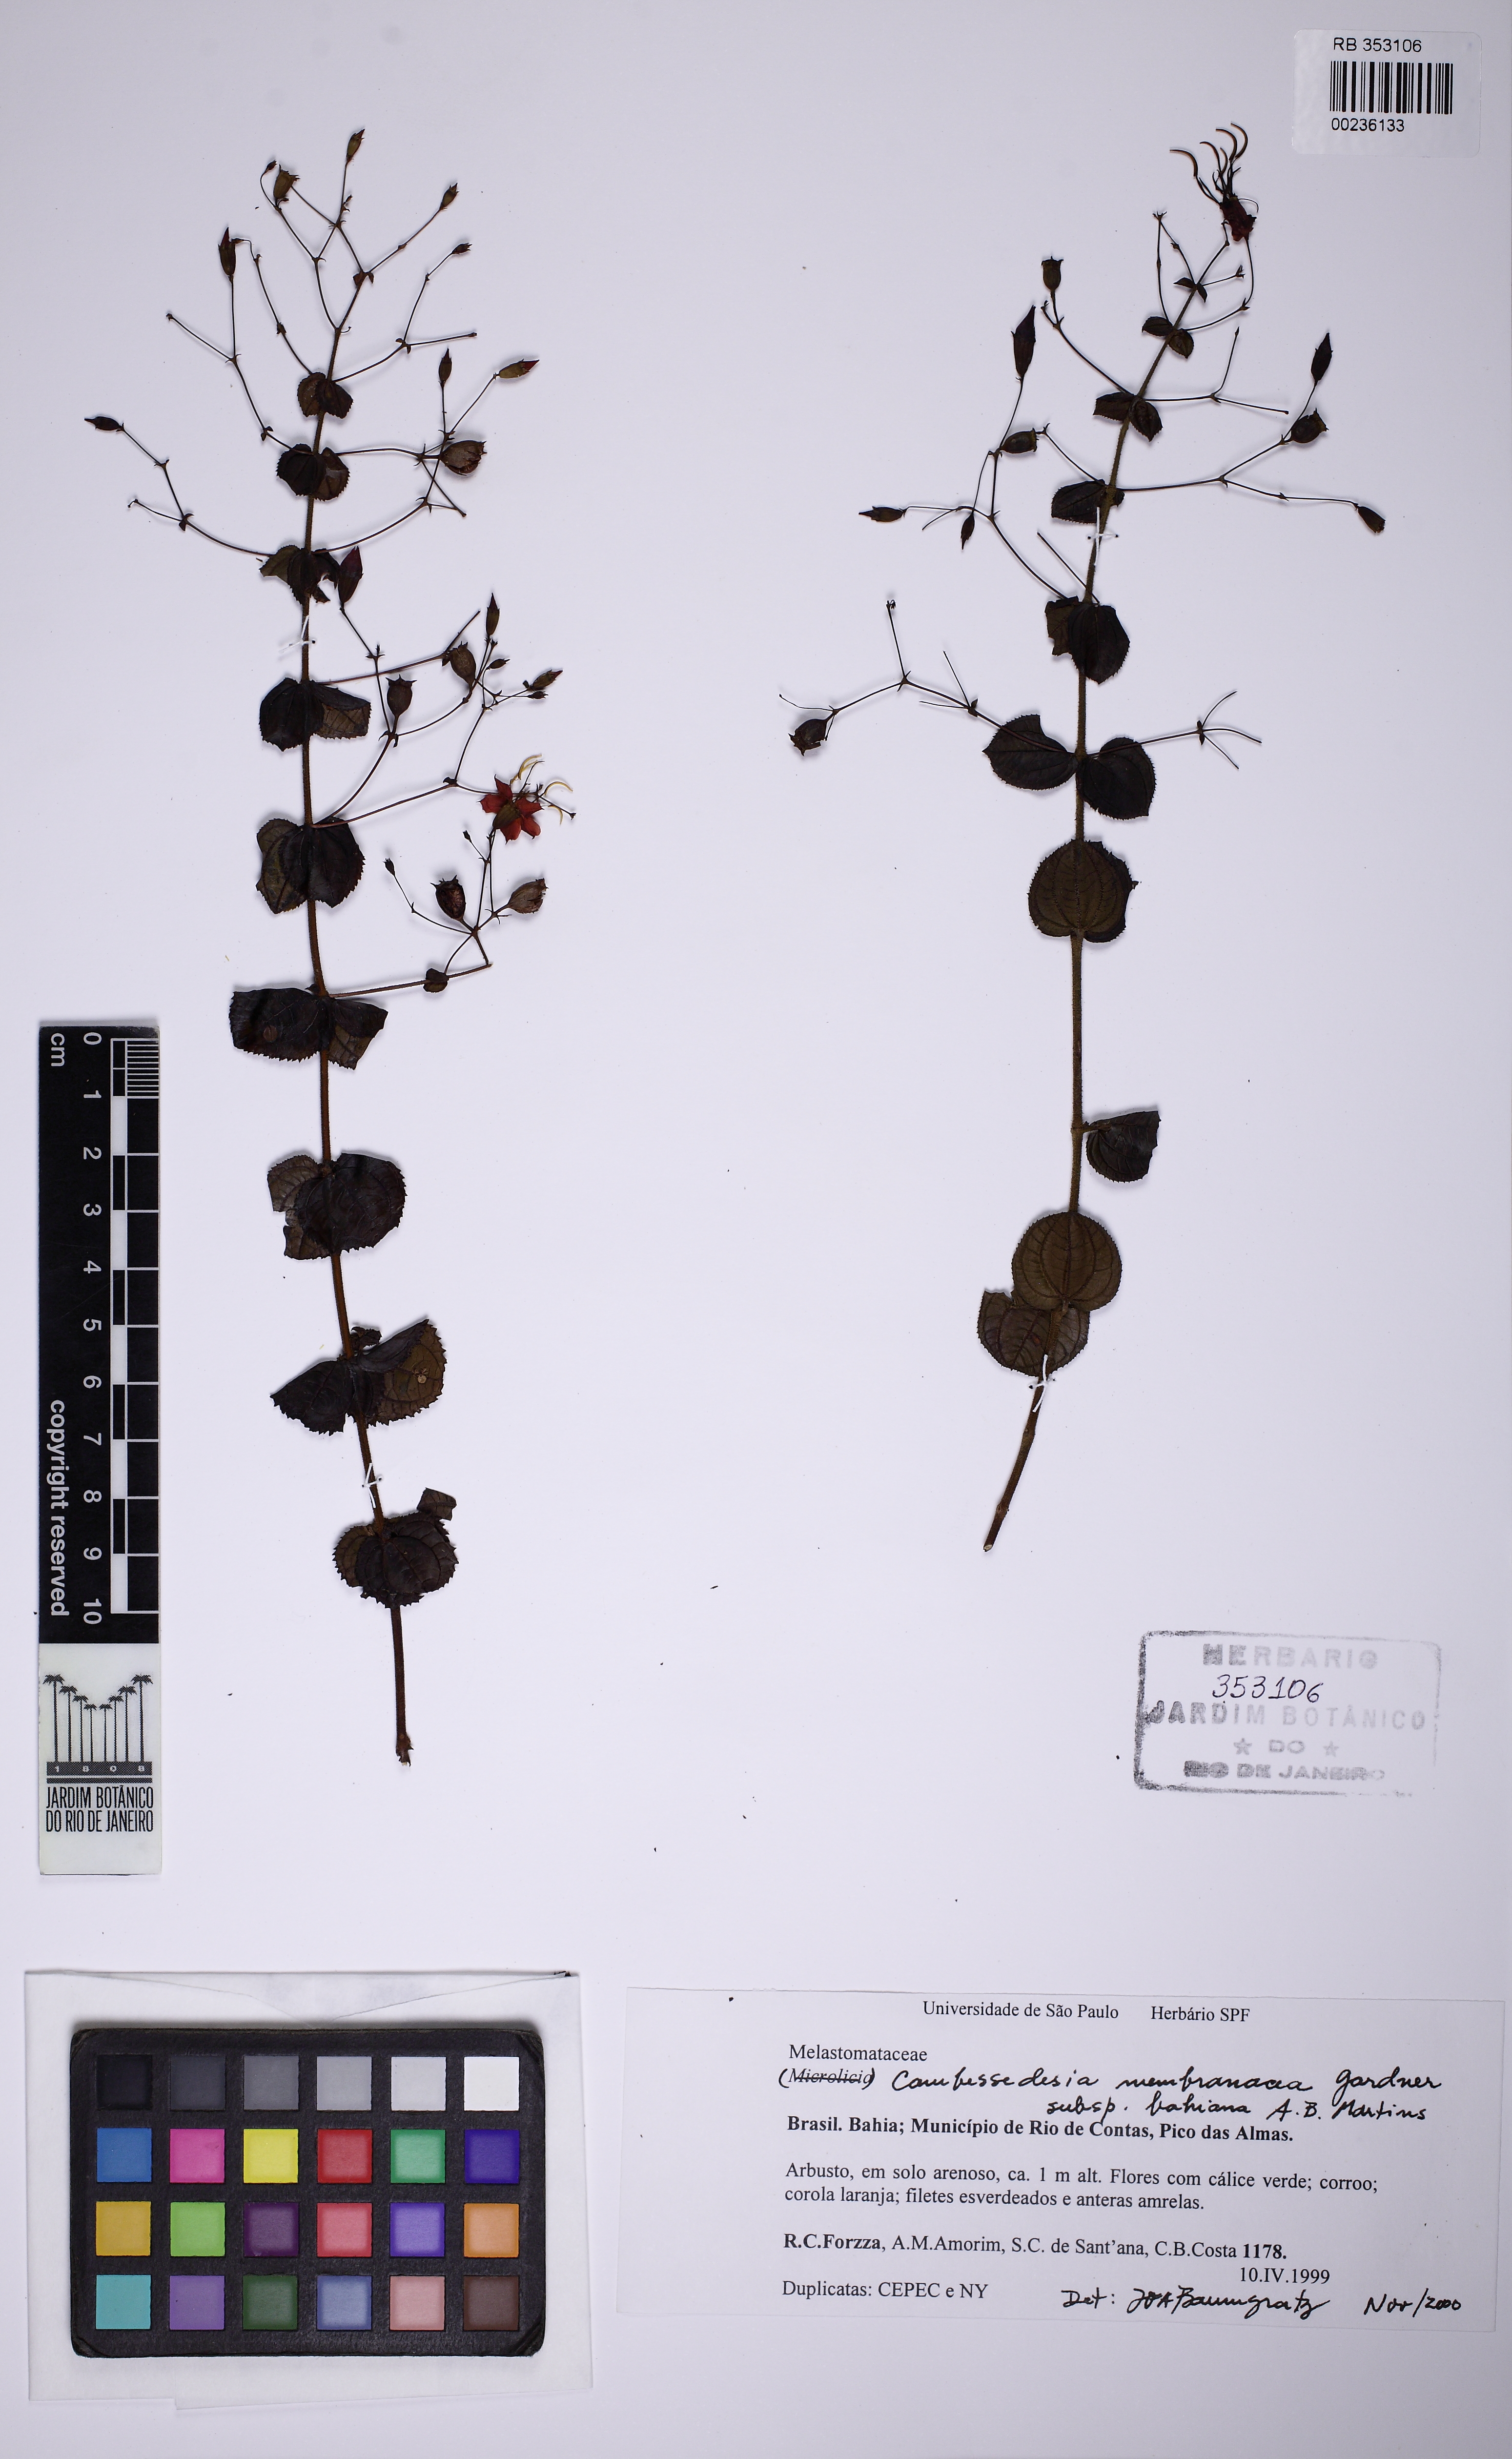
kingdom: Plantae
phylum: Tracheophyta
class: Magnoliopsida
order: Myrtales
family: Melastomataceae
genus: Cambessedesia
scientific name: Cambessedesia membranacea
